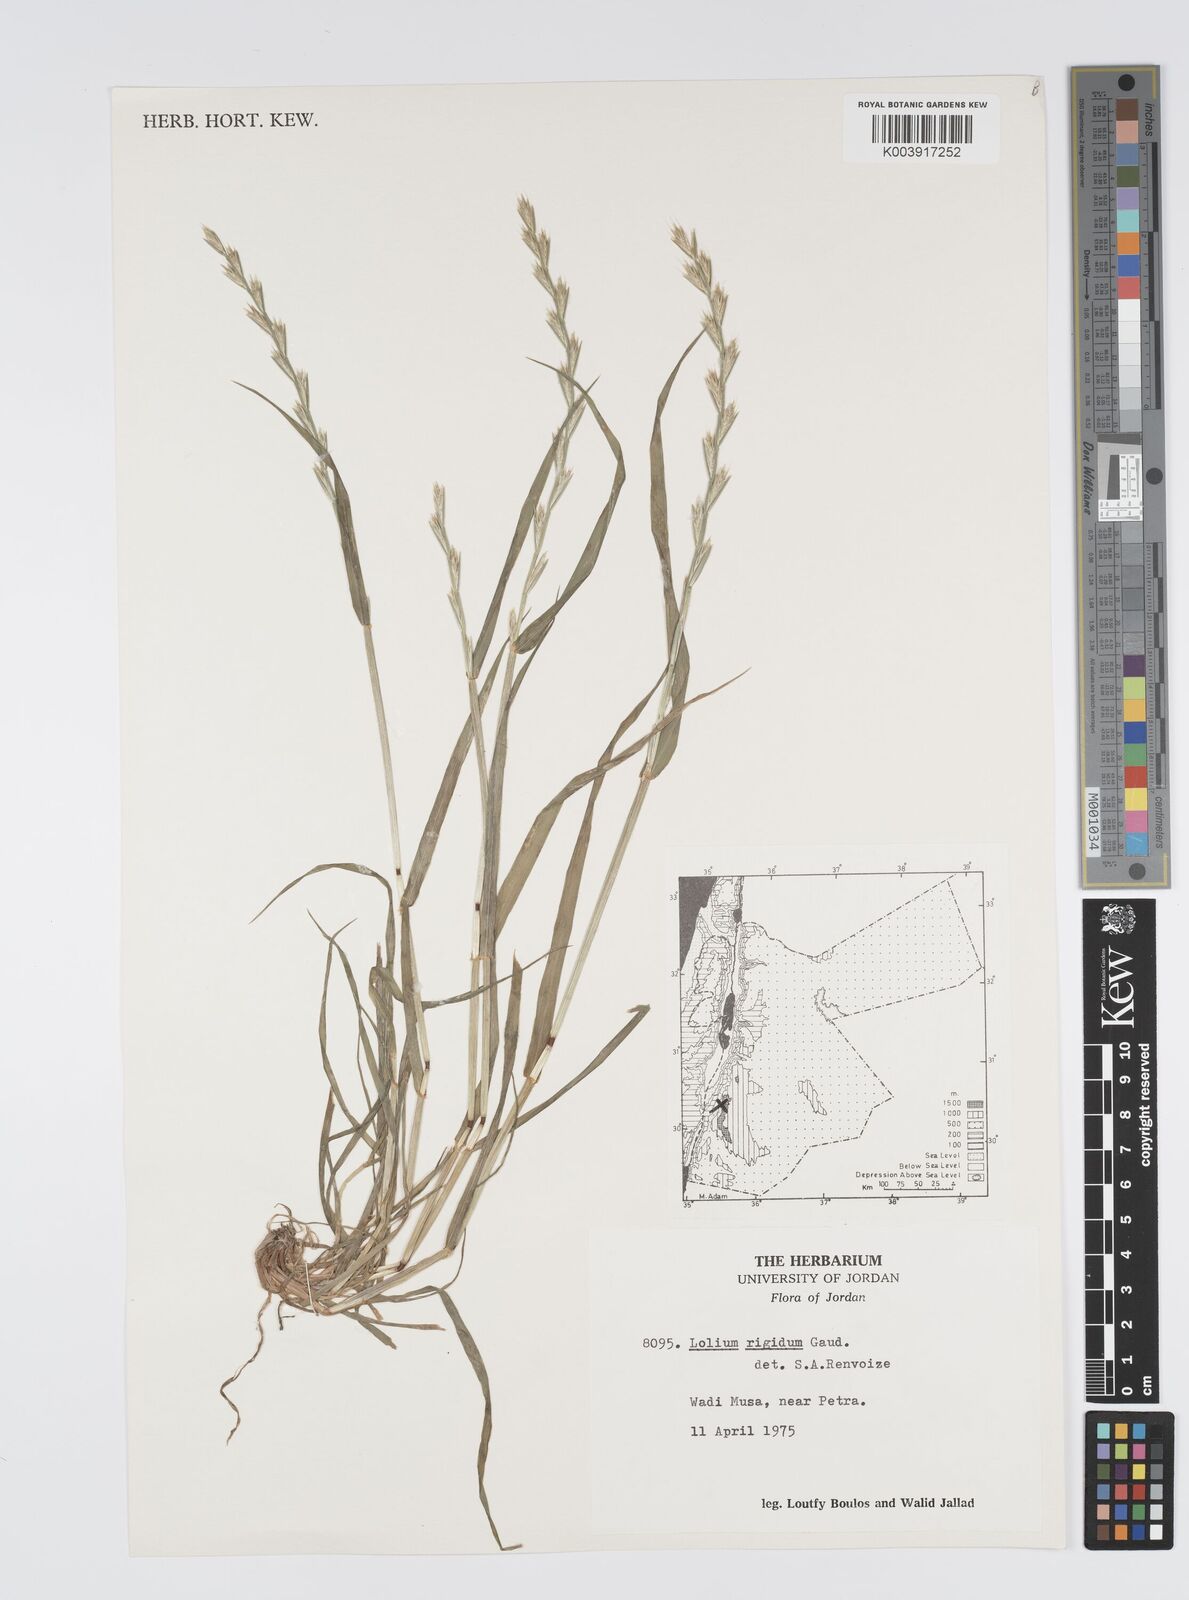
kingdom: Plantae
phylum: Tracheophyta
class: Liliopsida
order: Poales
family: Poaceae
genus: Lolium
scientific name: Lolium rigidum
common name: Wimmera ryegrass
